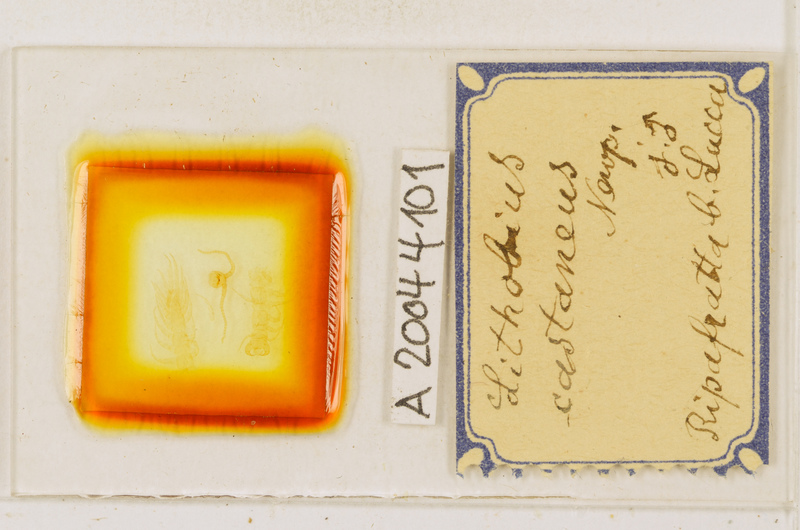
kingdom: Animalia
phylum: Arthropoda
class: Chilopoda
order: Lithobiomorpha
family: Lithobiidae
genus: Lithobius
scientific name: Lithobius castaneus
